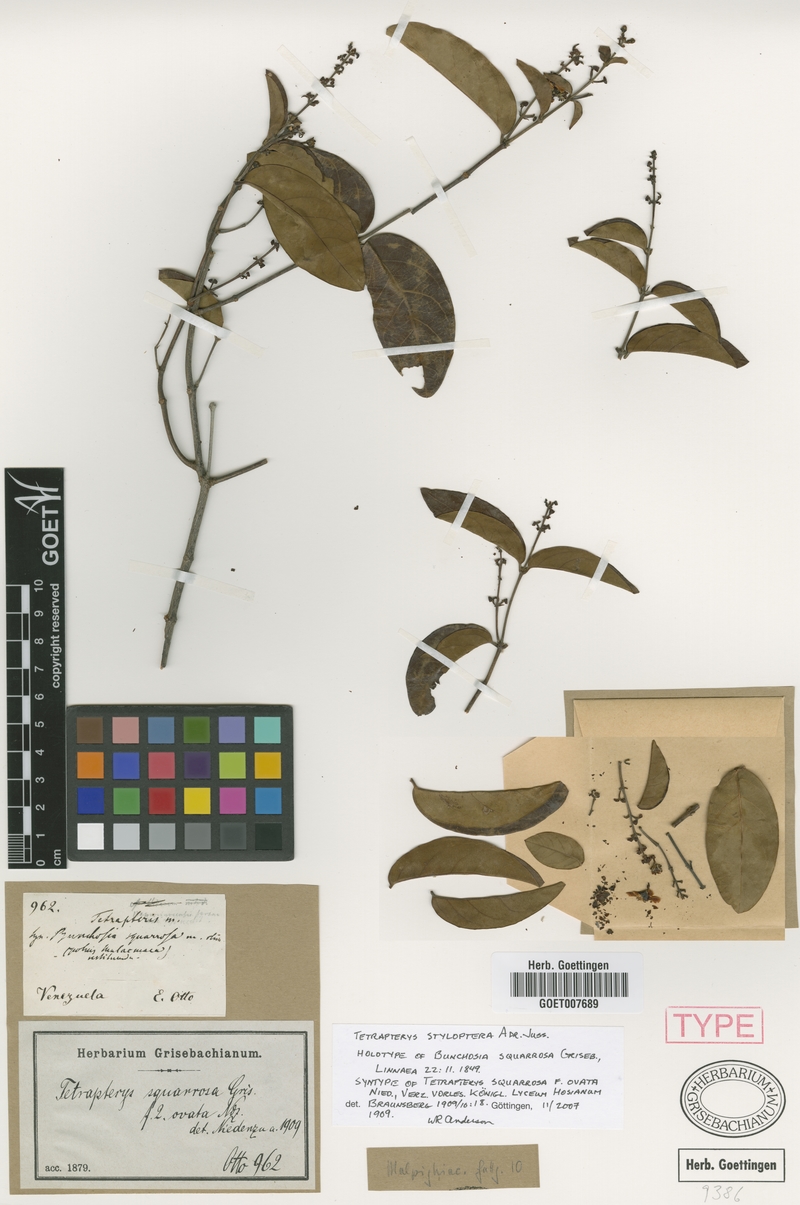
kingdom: Plantae
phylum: Tracheophyta
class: Magnoliopsida
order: Malpighiales
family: Malpighiaceae
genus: Glicophyllum
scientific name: Glicophyllum stylopterum
